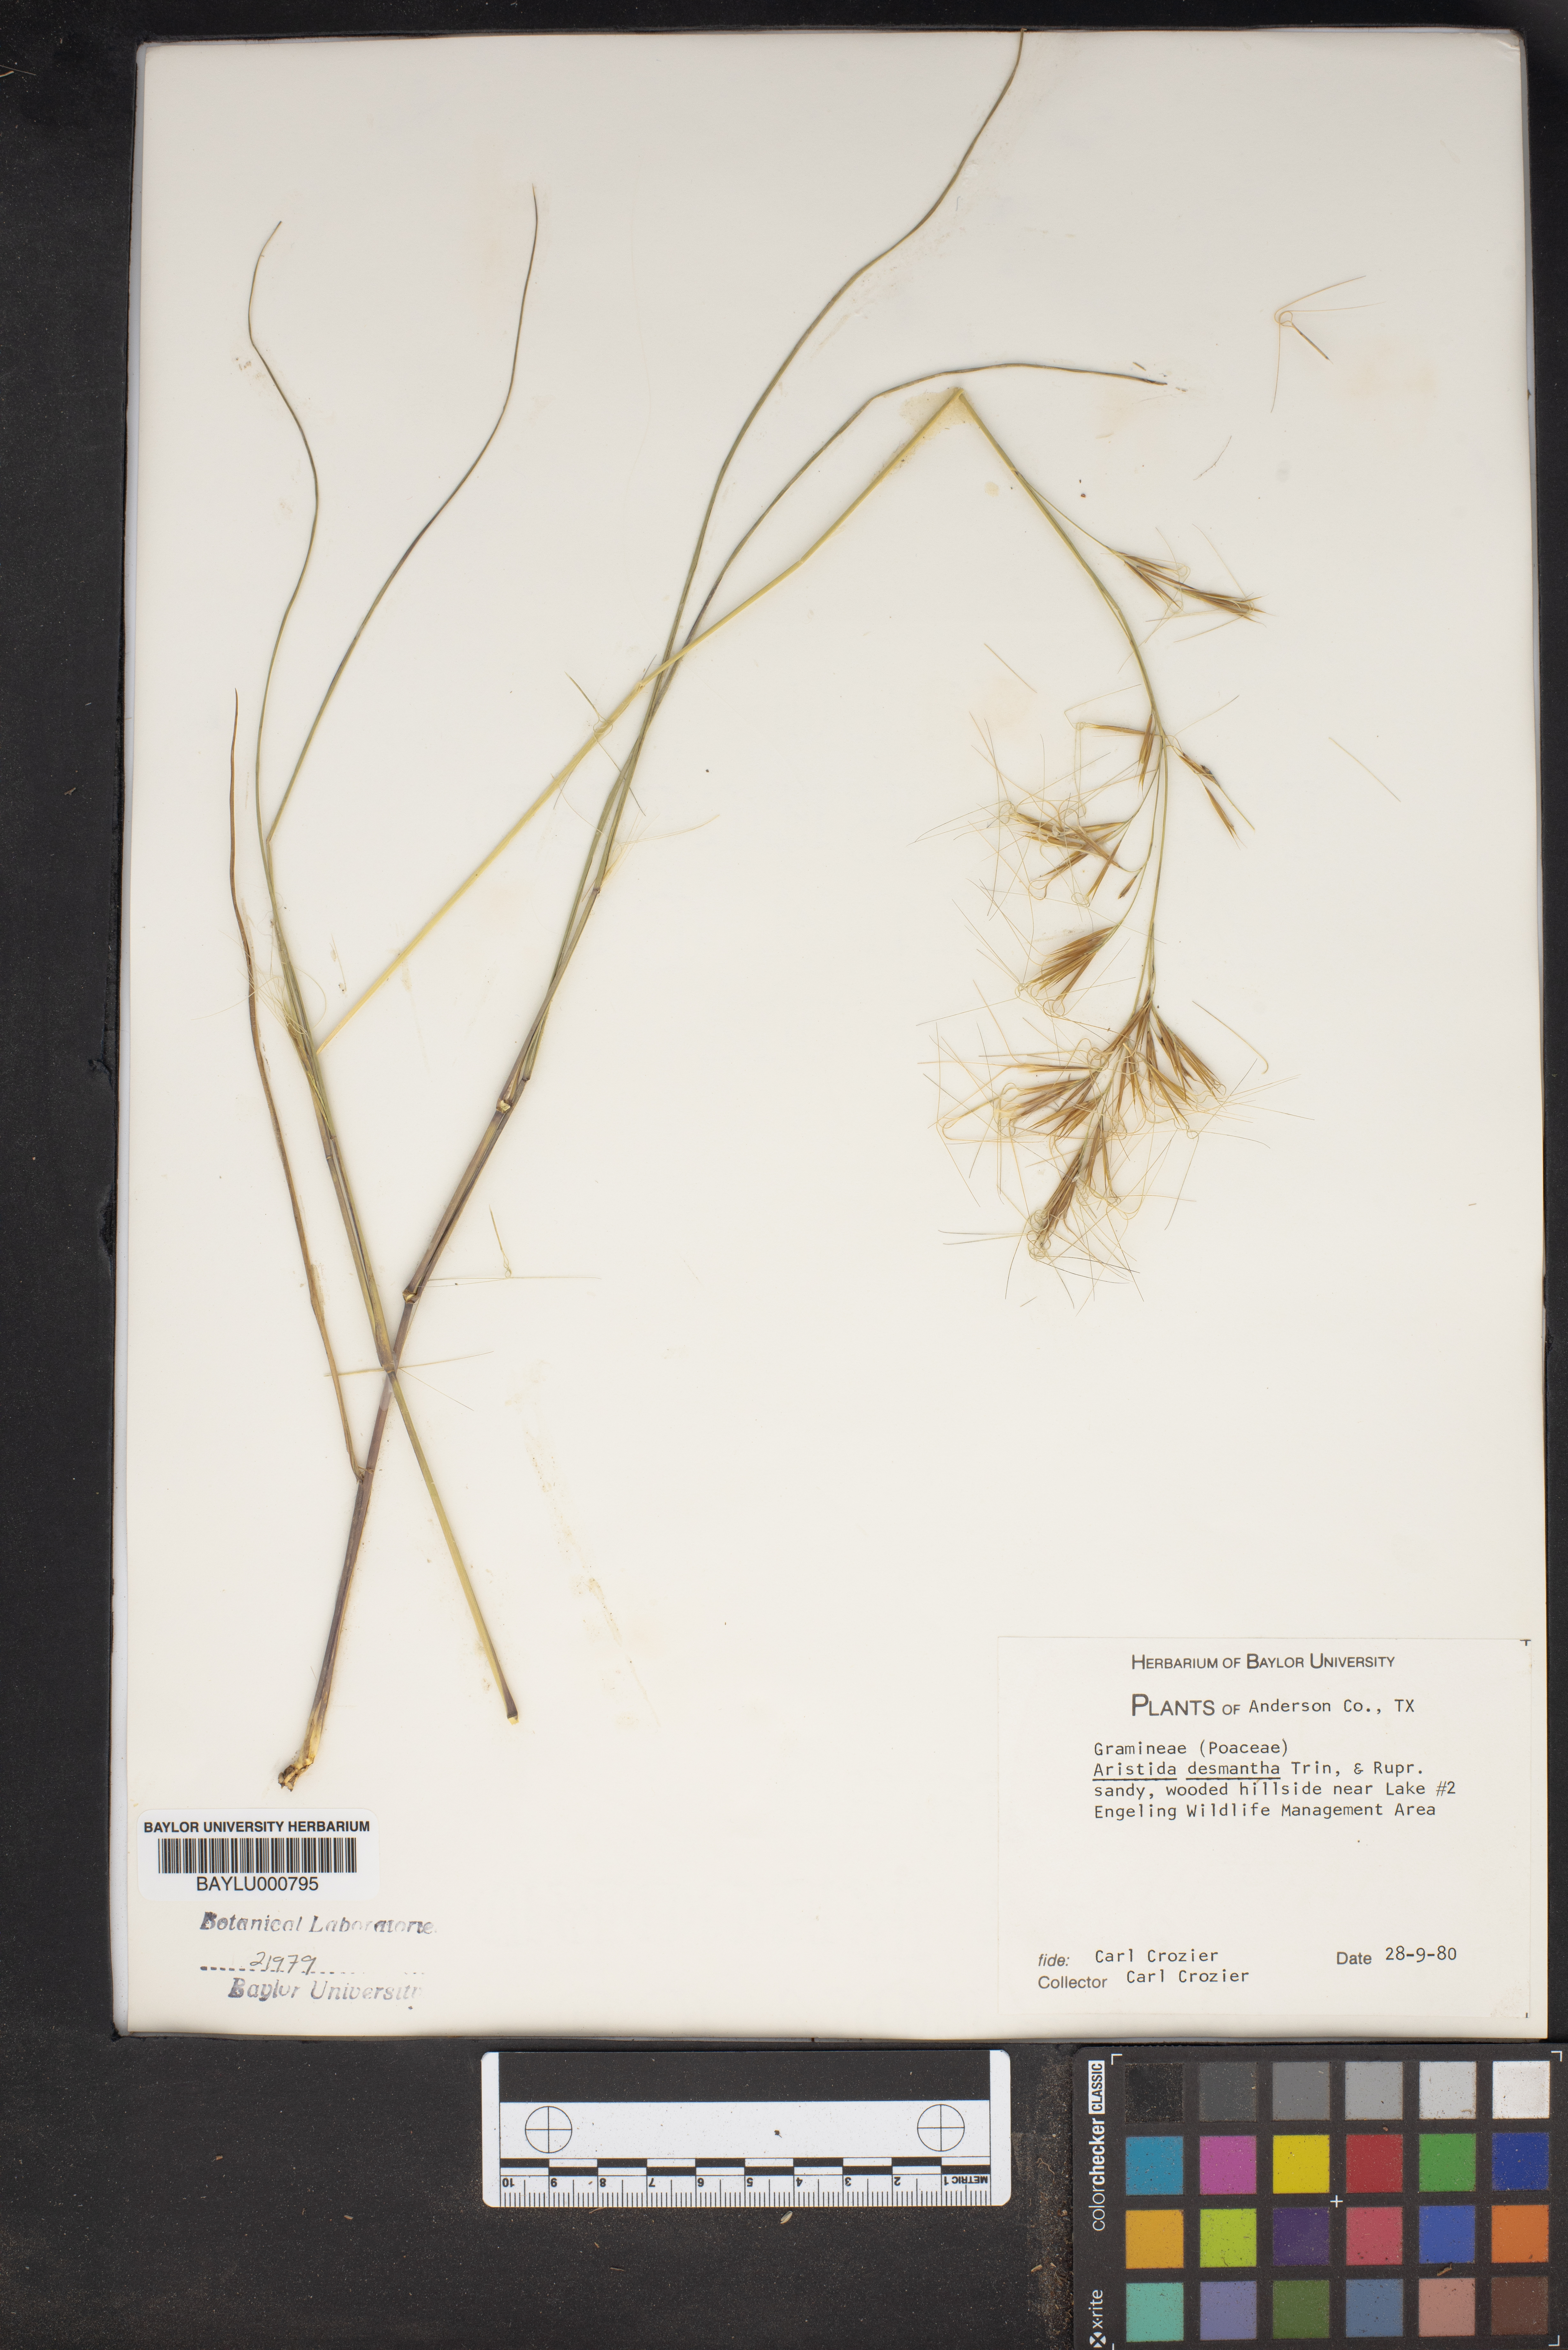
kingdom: Plantae
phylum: Tracheophyta
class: Liliopsida
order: Poales
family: Poaceae
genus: Aristida
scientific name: Aristida desmantha
